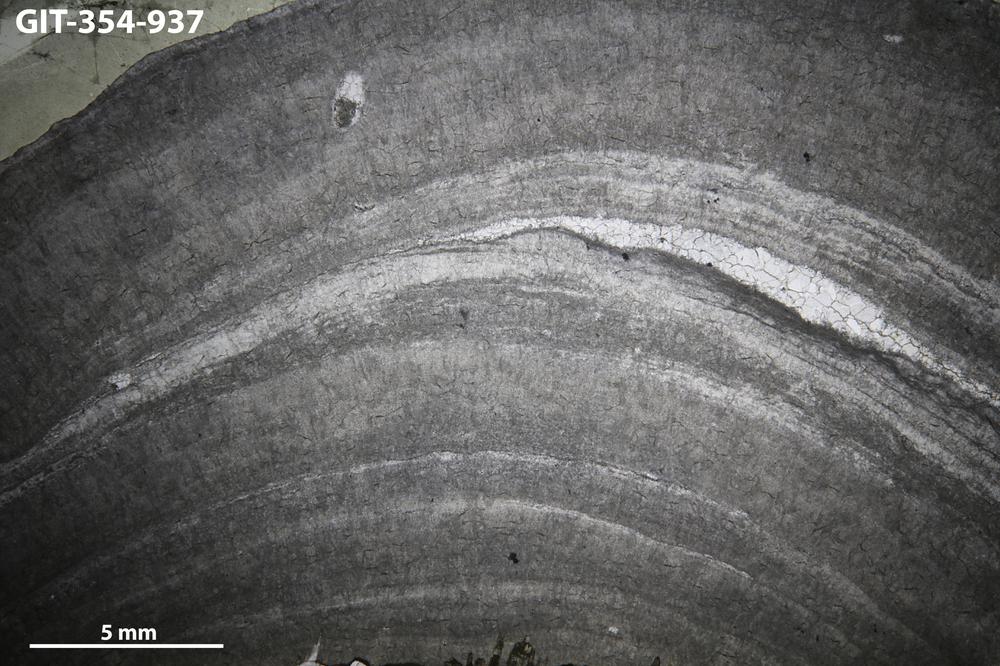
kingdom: Animalia
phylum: Porifera
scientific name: Porifera
